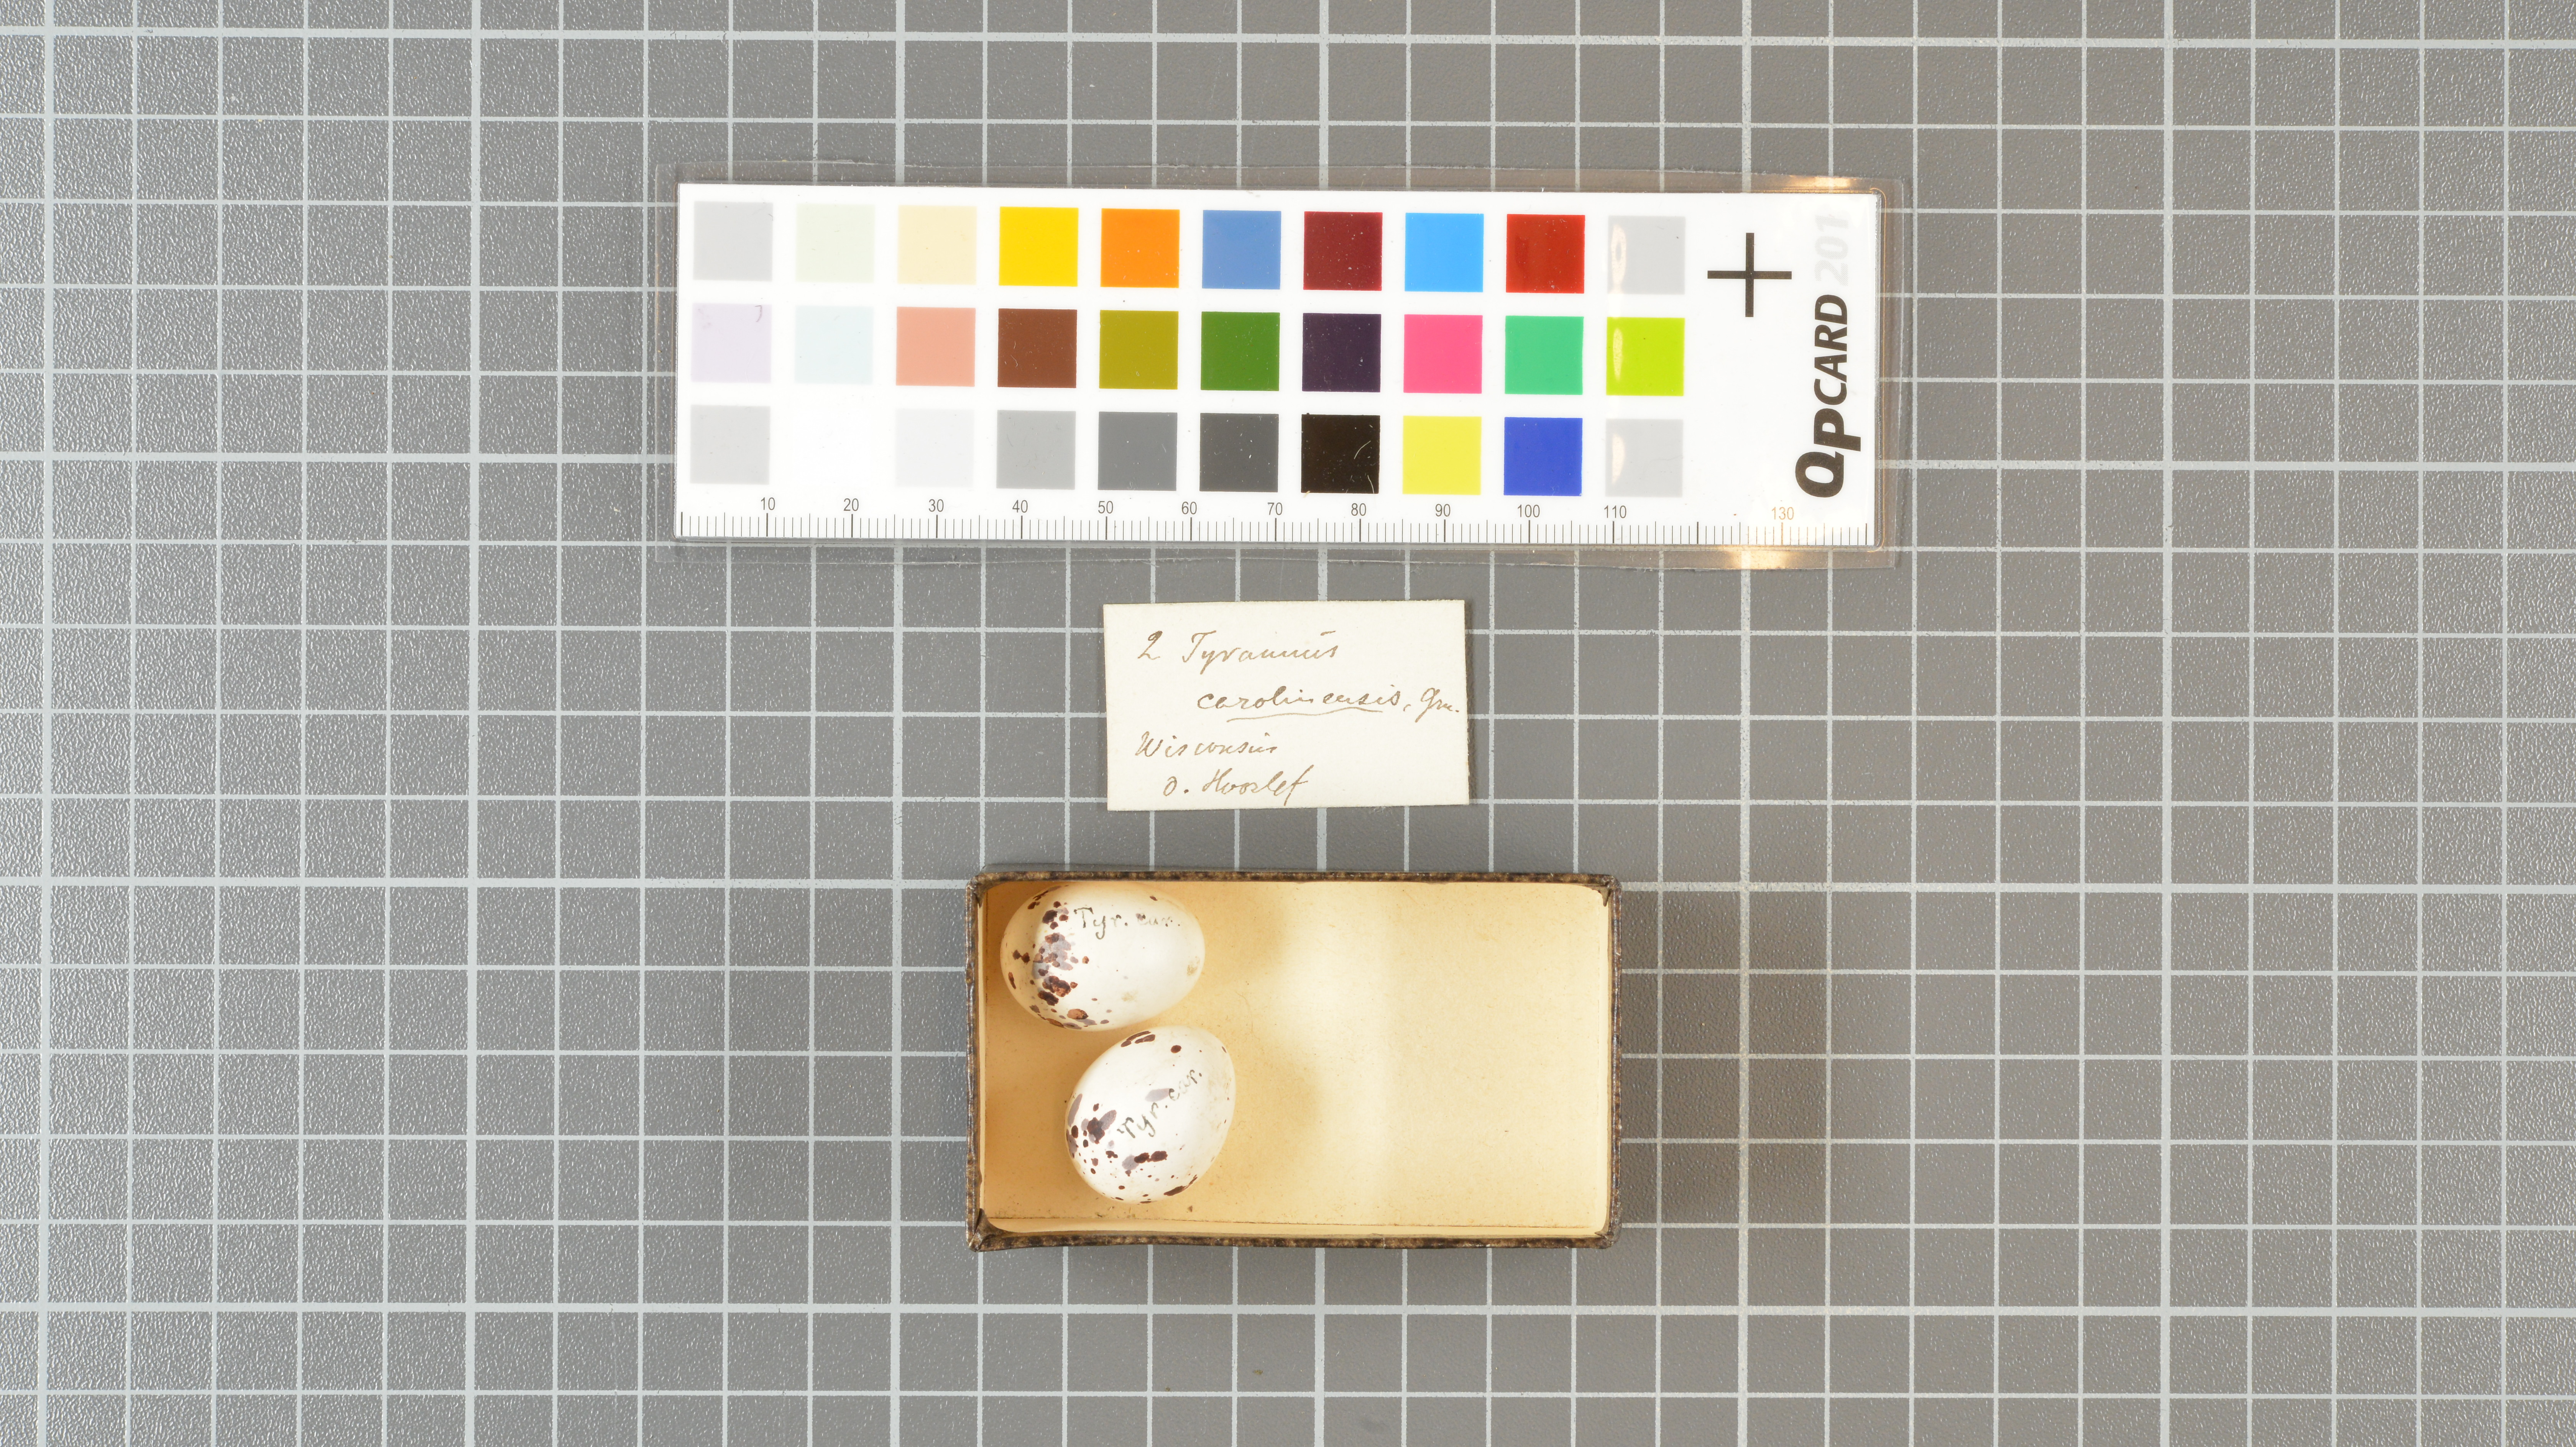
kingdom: Animalia
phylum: Chordata
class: Aves
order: Passeriformes
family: Tyrannidae
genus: Tyrannus
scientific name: Tyrannus tyrannus
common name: Eastern kingbird
